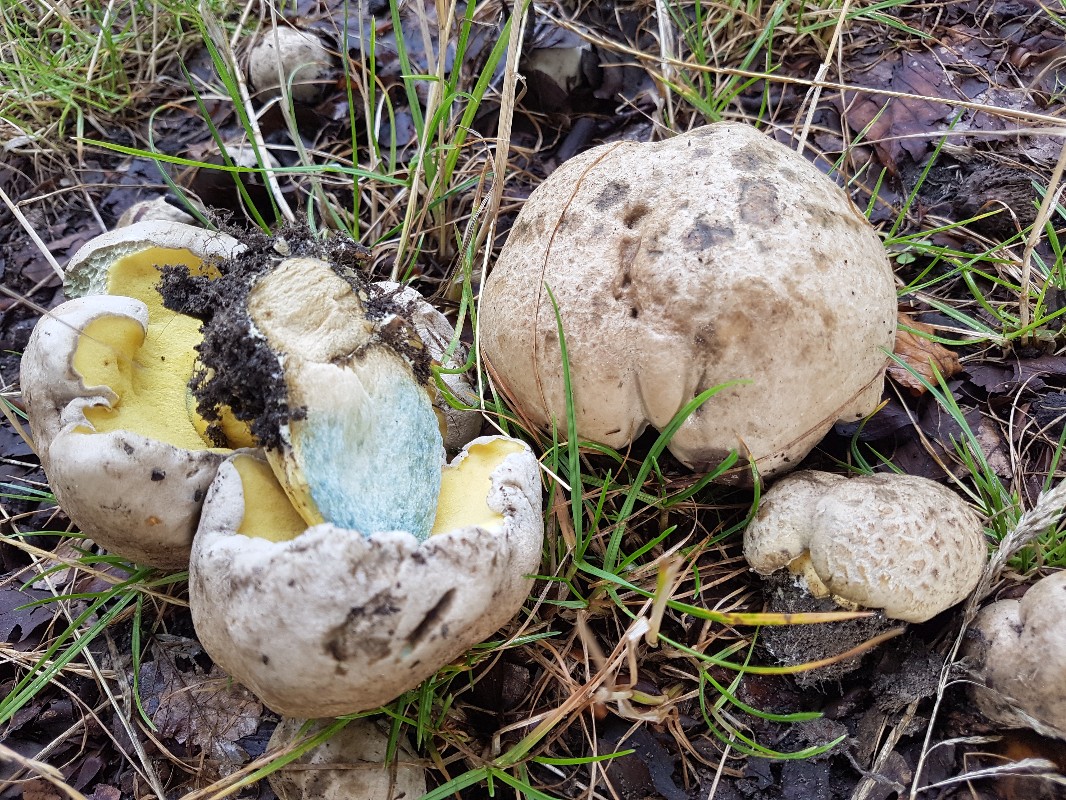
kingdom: Fungi
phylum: Basidiomycota
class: Agaricomycetes
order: Boletales
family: Boletaceae
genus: Caloboletus
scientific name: Caloboletus radicans
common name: rod-rørhat
